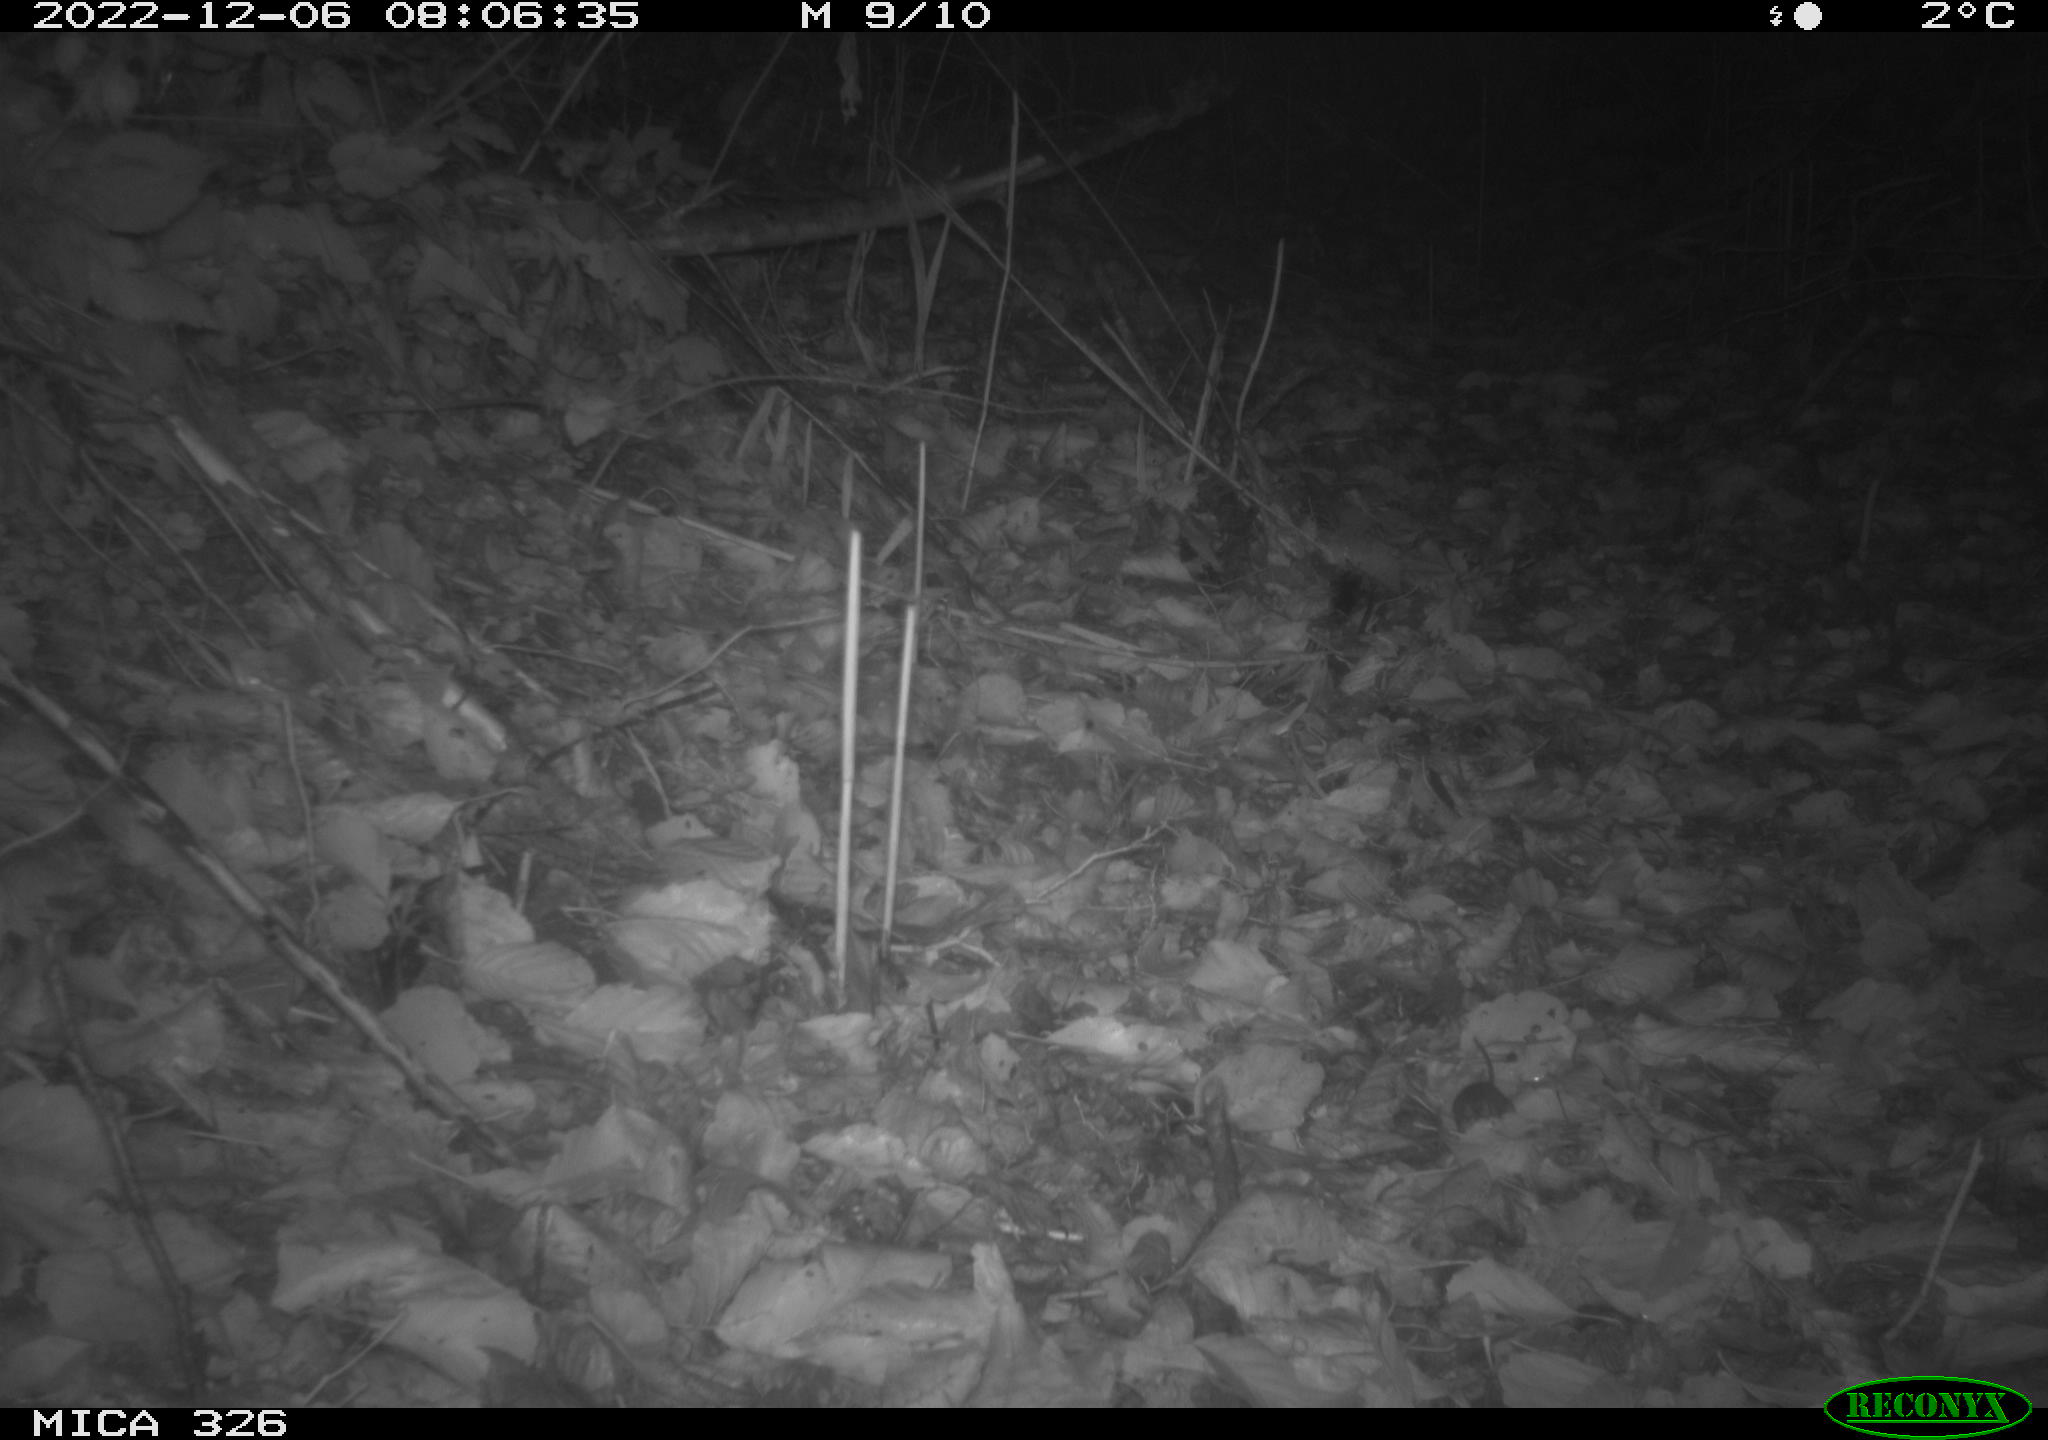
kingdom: Animalia
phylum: Chordata
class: Mammalia
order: Rodentia
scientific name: Rodentia
